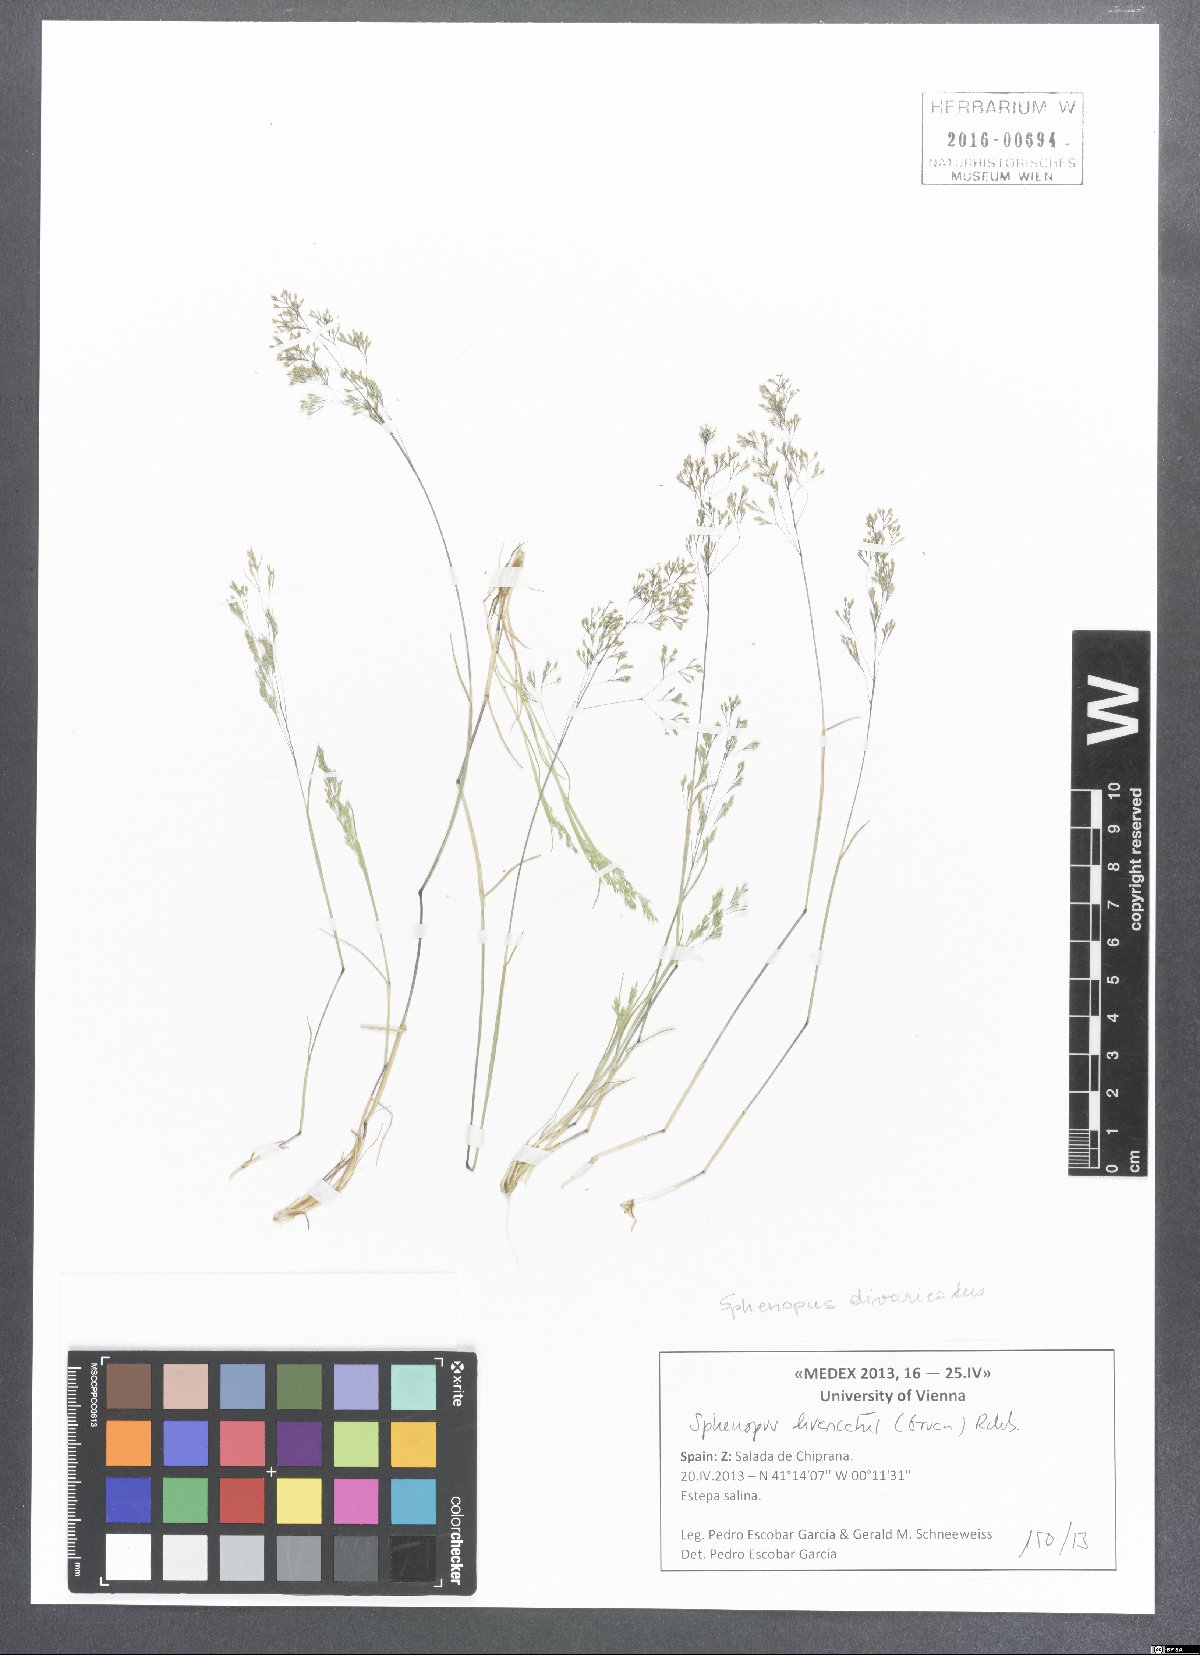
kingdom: Plantae
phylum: Tracheophyta
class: Liliopsida
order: Poales
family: Poaceae
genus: Sphenopus
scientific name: Sphenopus divaricatus
